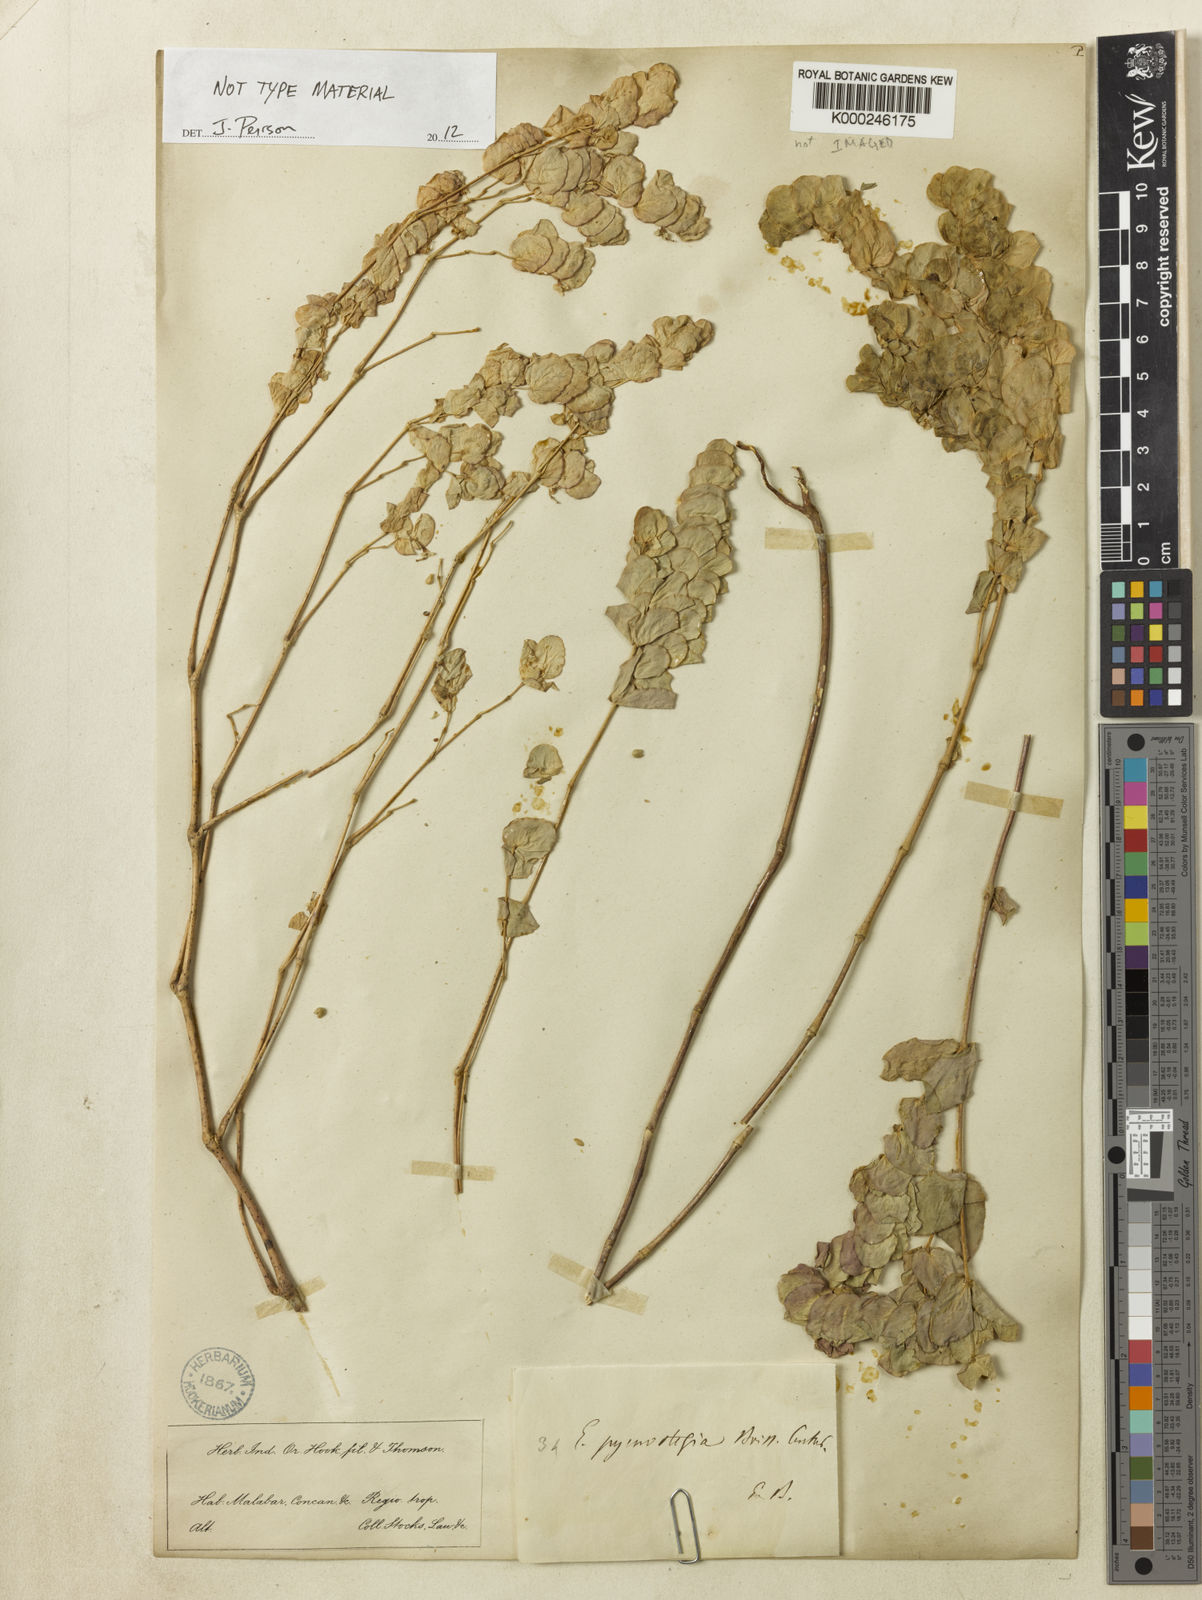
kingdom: Plantae
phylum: Tracheophyta
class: Magnoliopsida
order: Malpighiales
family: Euphorbiaceae
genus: Euphorbia
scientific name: Euphorbia pycnostegia
